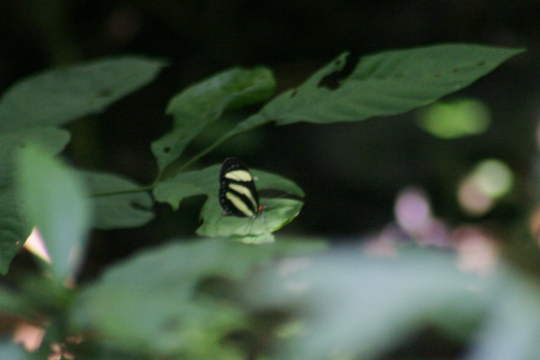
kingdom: Animalia
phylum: Arthropoda
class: Insecta
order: Lepidoptera
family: Nymphalidae
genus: Aeria
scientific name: Aeria eurimedia
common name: Banded Tigerwing
